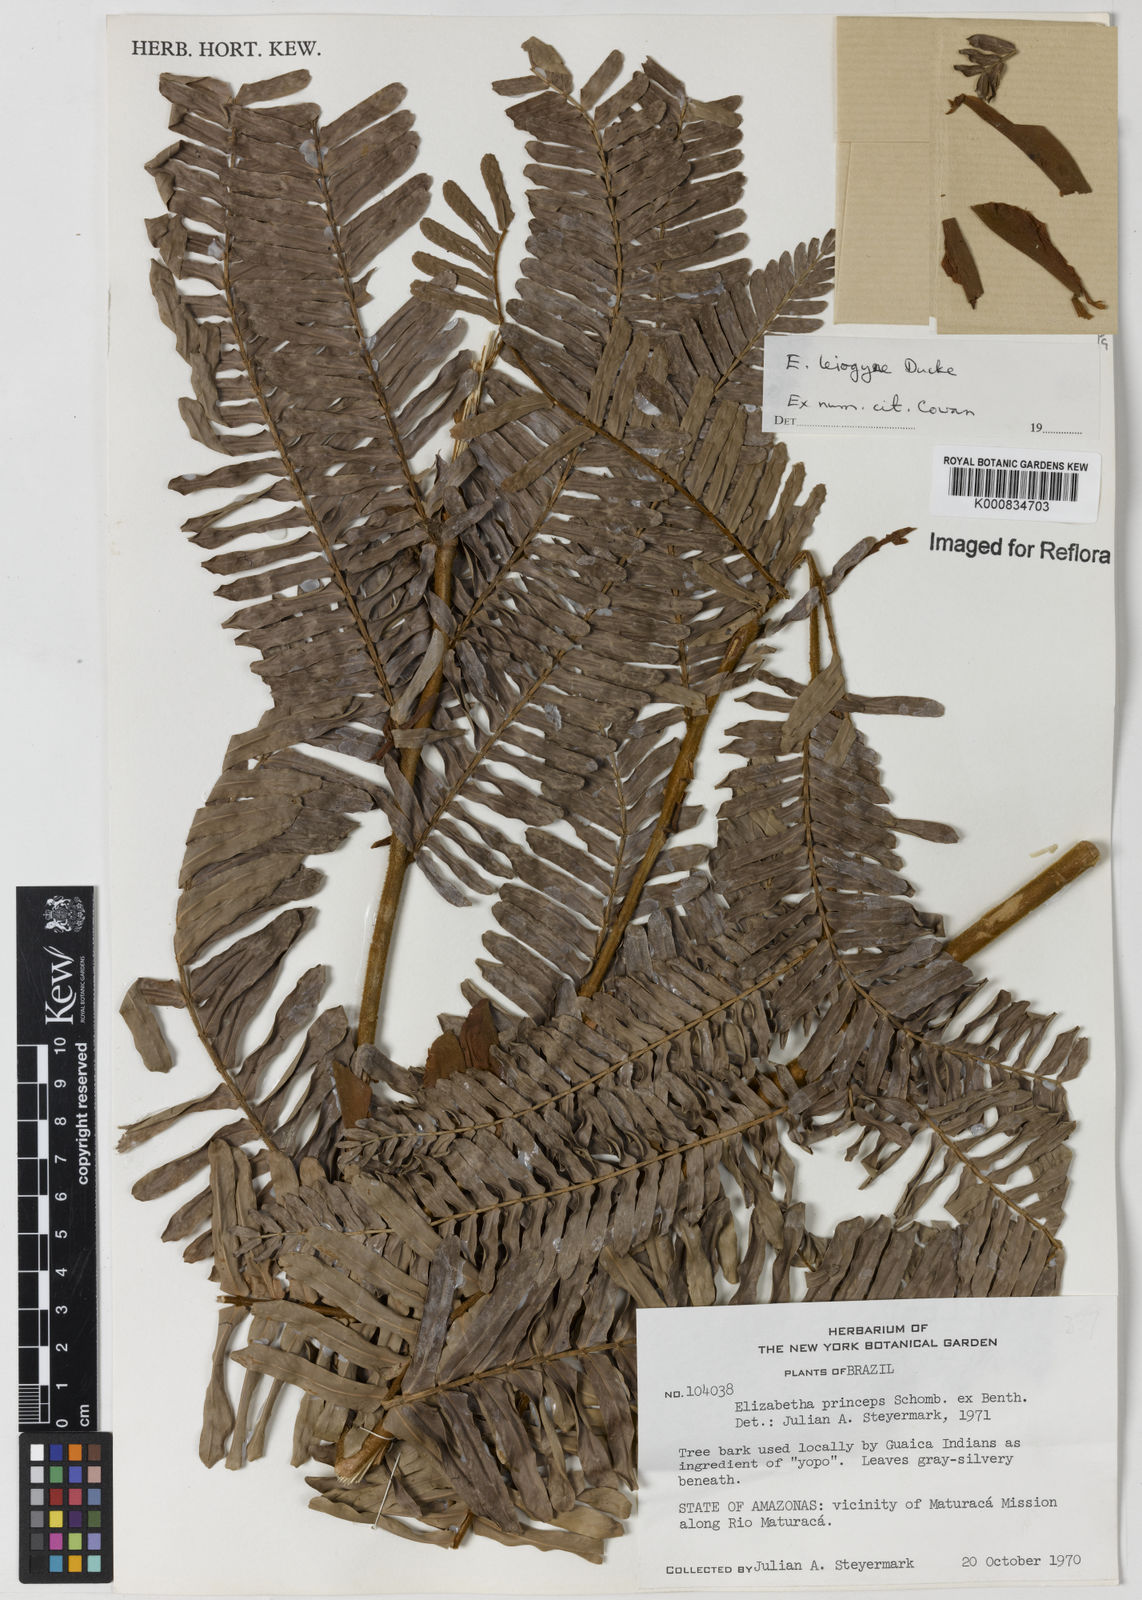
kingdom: Plantae
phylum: Tracheophyta
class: Magnoliopsida
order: Fabales
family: Fabaceae
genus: Paloue
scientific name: Paloue leiogyne
